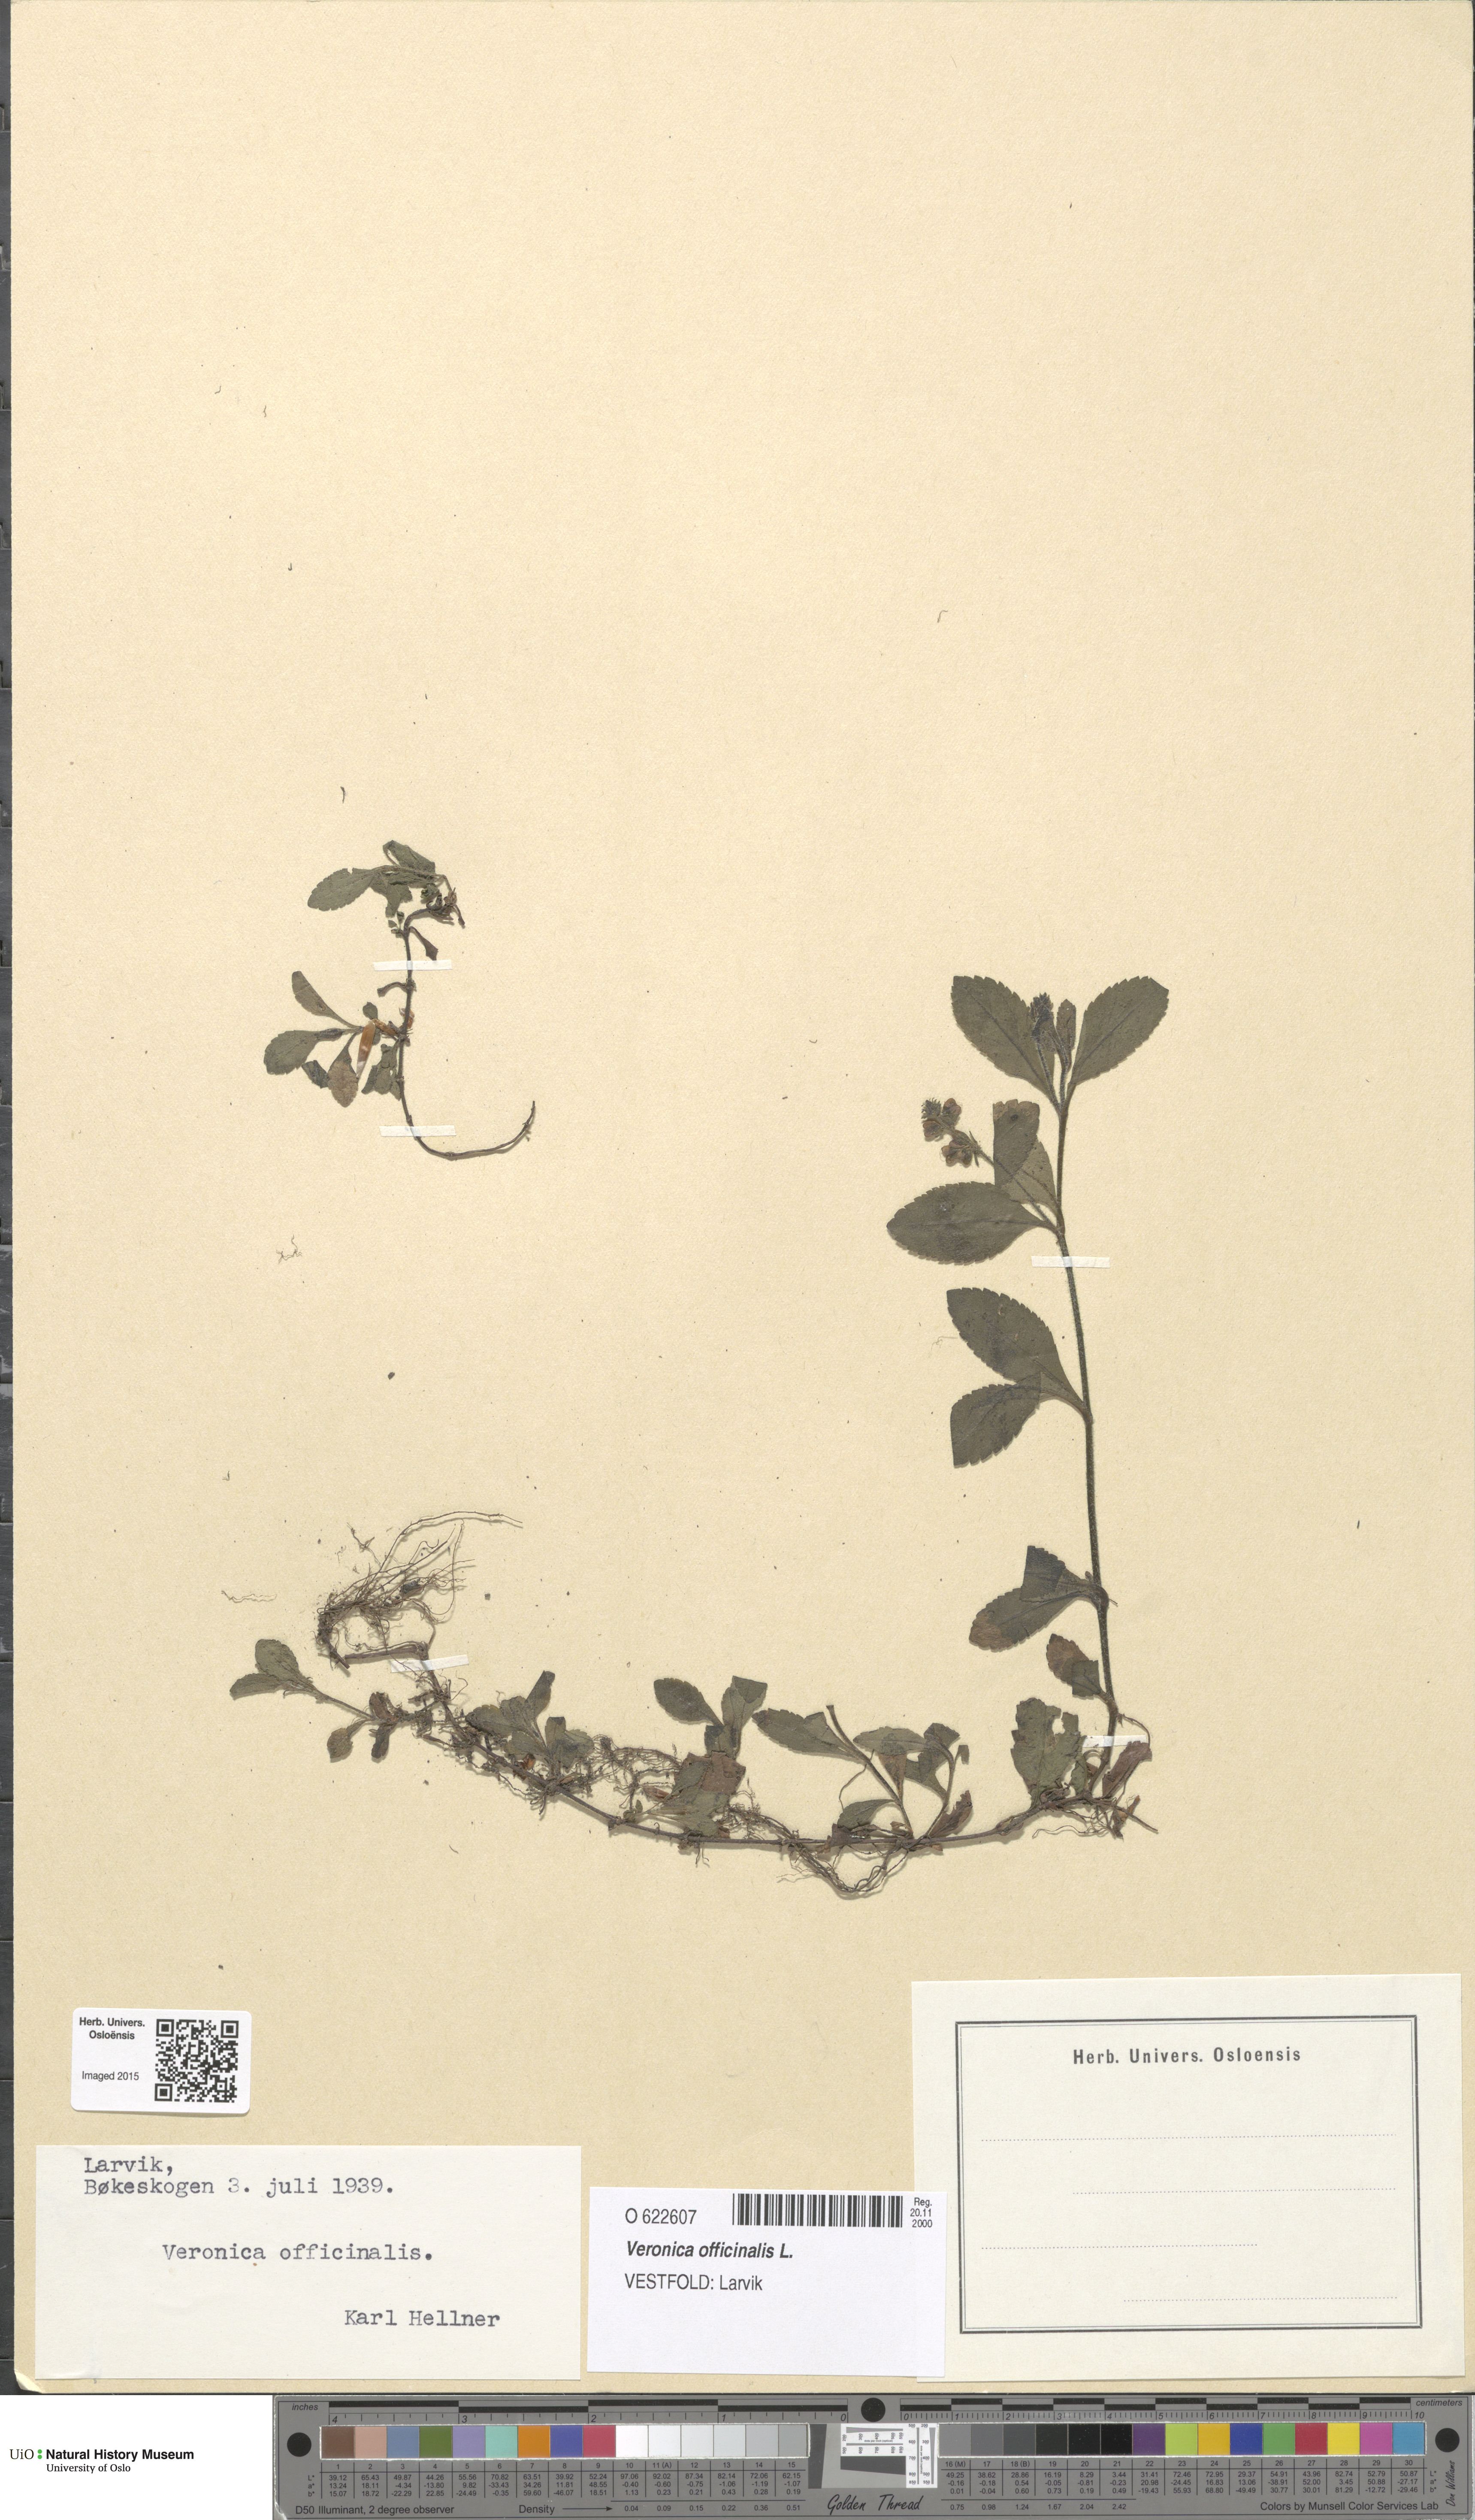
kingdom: Plantae
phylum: Tracheophyta
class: Magnoliopsida
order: Lamiales
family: Plantaginaceae
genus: Veronica
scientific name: Veronica officinalis
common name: Common speedwell
